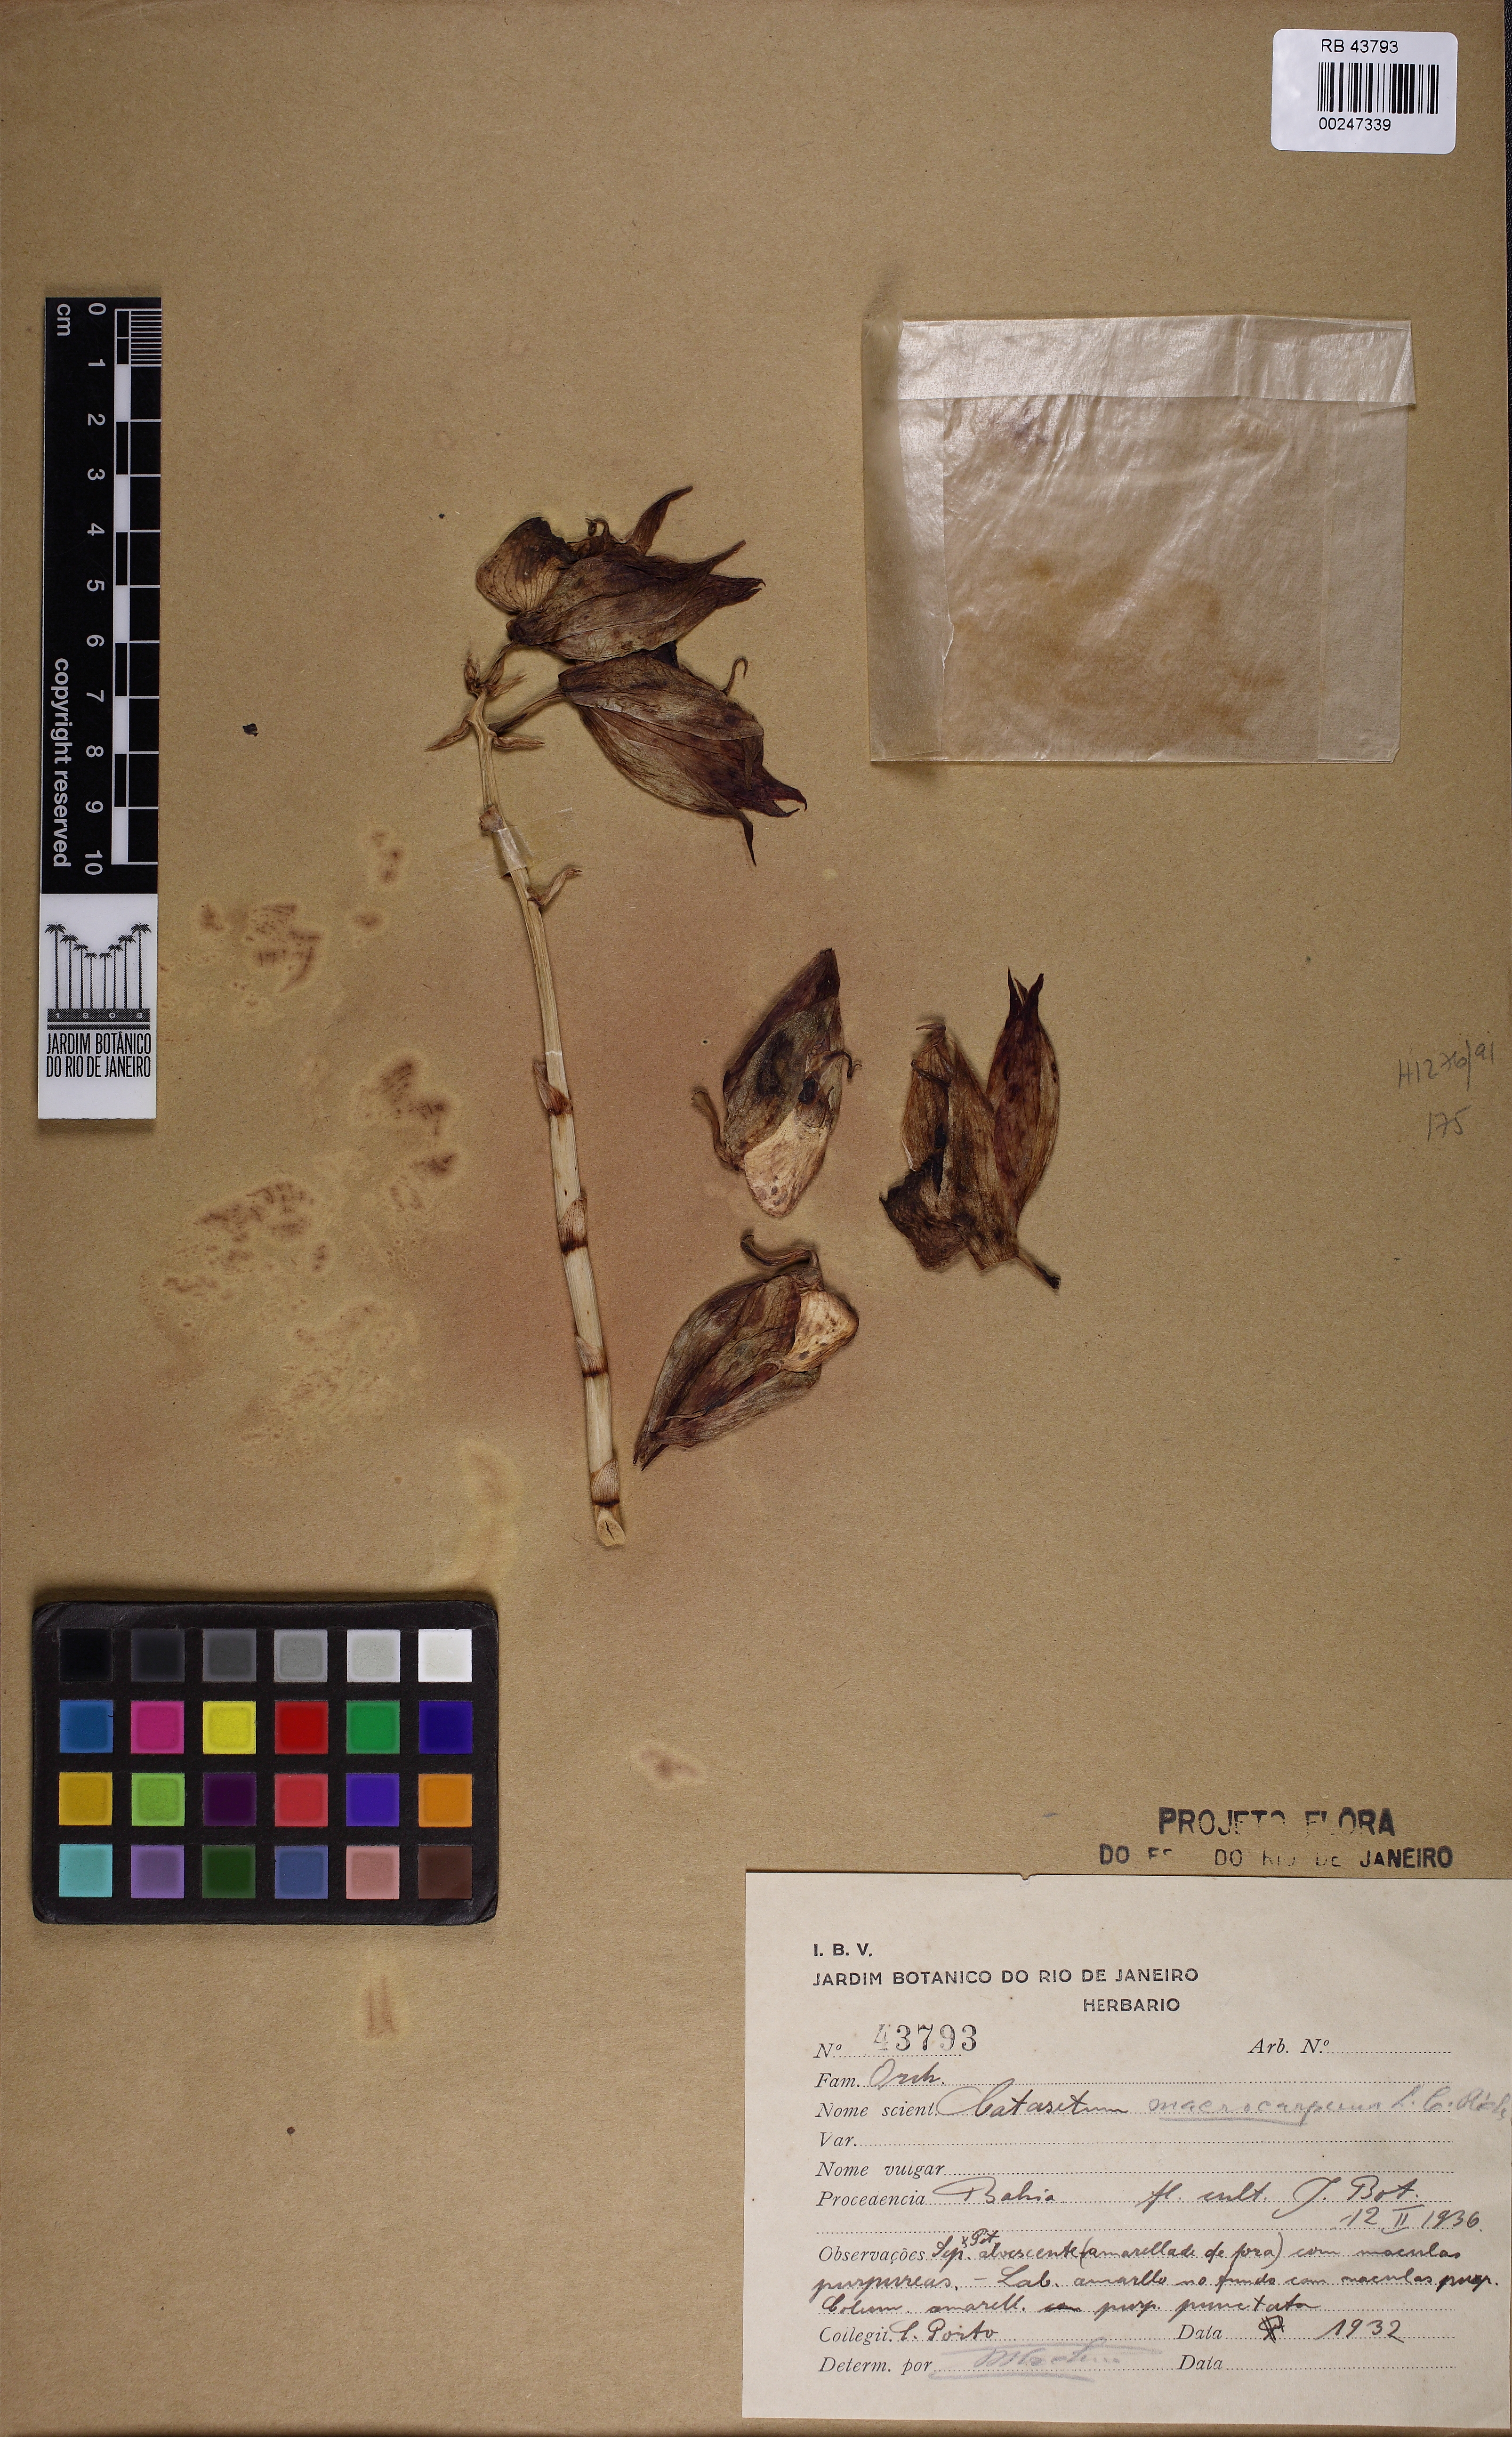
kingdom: Plantae
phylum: Tracheophyta
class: Liliopsida
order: Asparagales
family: Orchidaceae
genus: Catasetum
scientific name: Catasetum macrocarpum
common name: Jumping orchid
